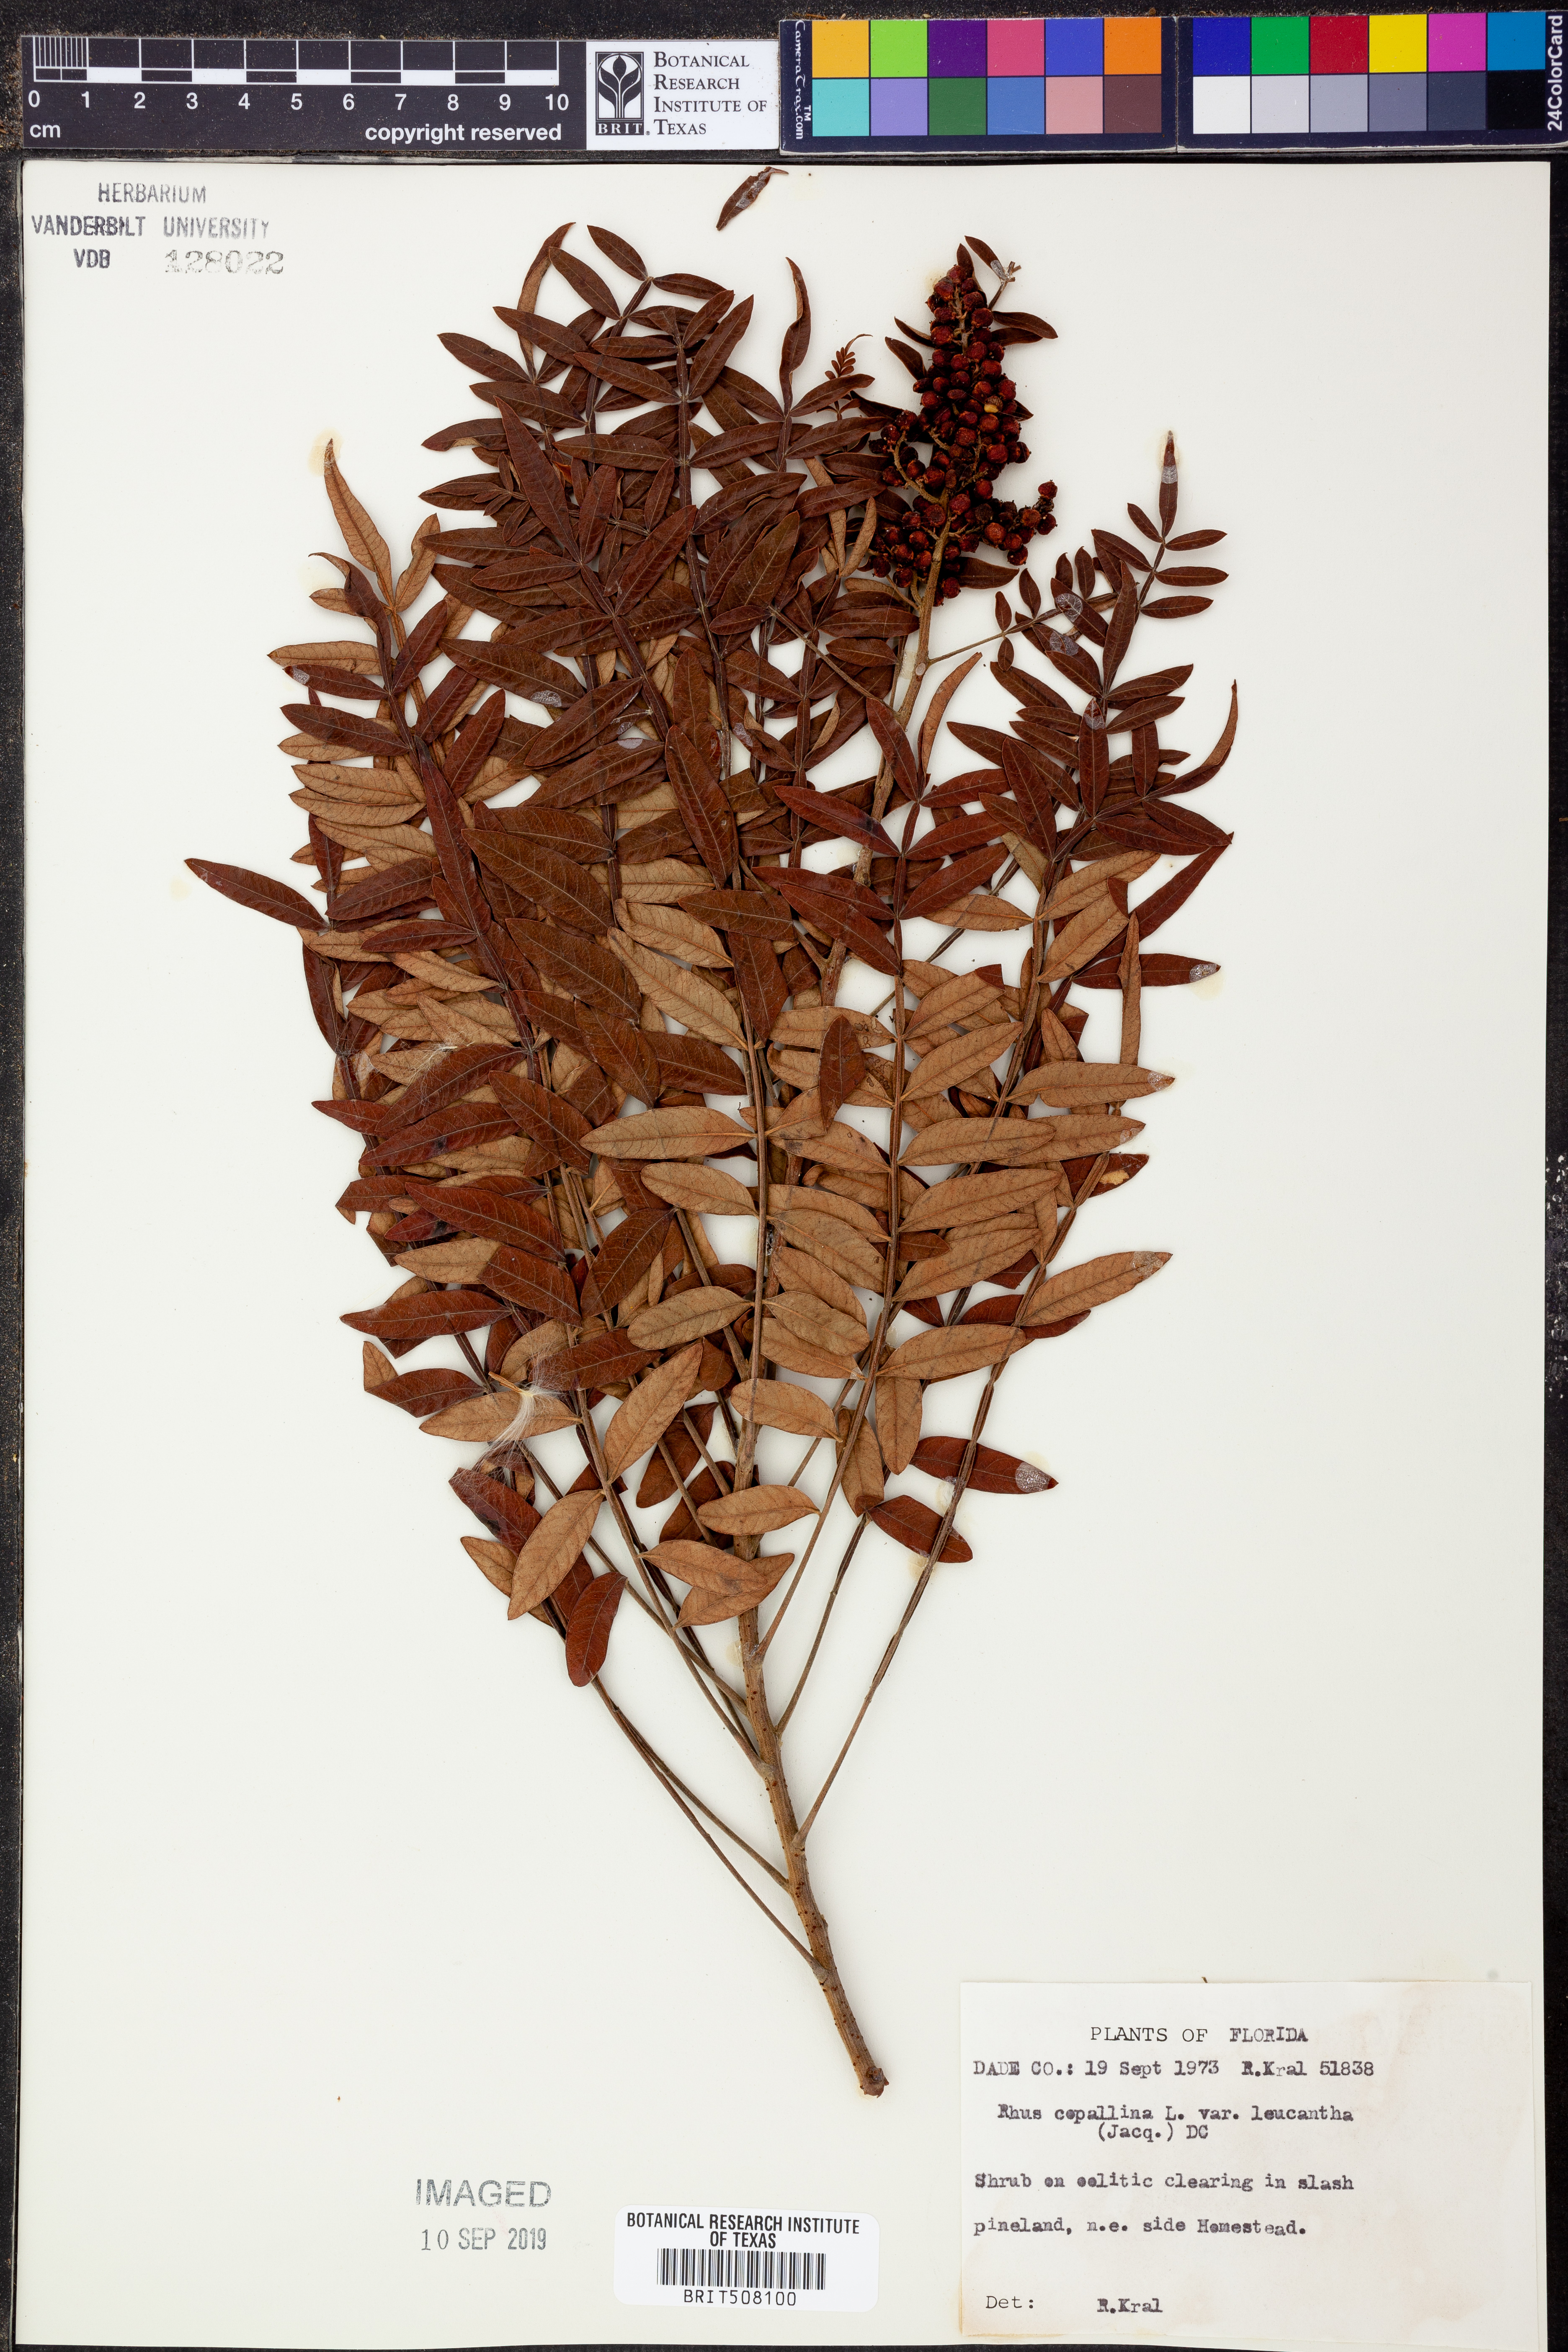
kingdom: Plantae
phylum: Tracheophyta
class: Magnoliopsida
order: Sapindales
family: Anacardiaceae
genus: Rhus
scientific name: Rhus copallina
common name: Shining sumac
